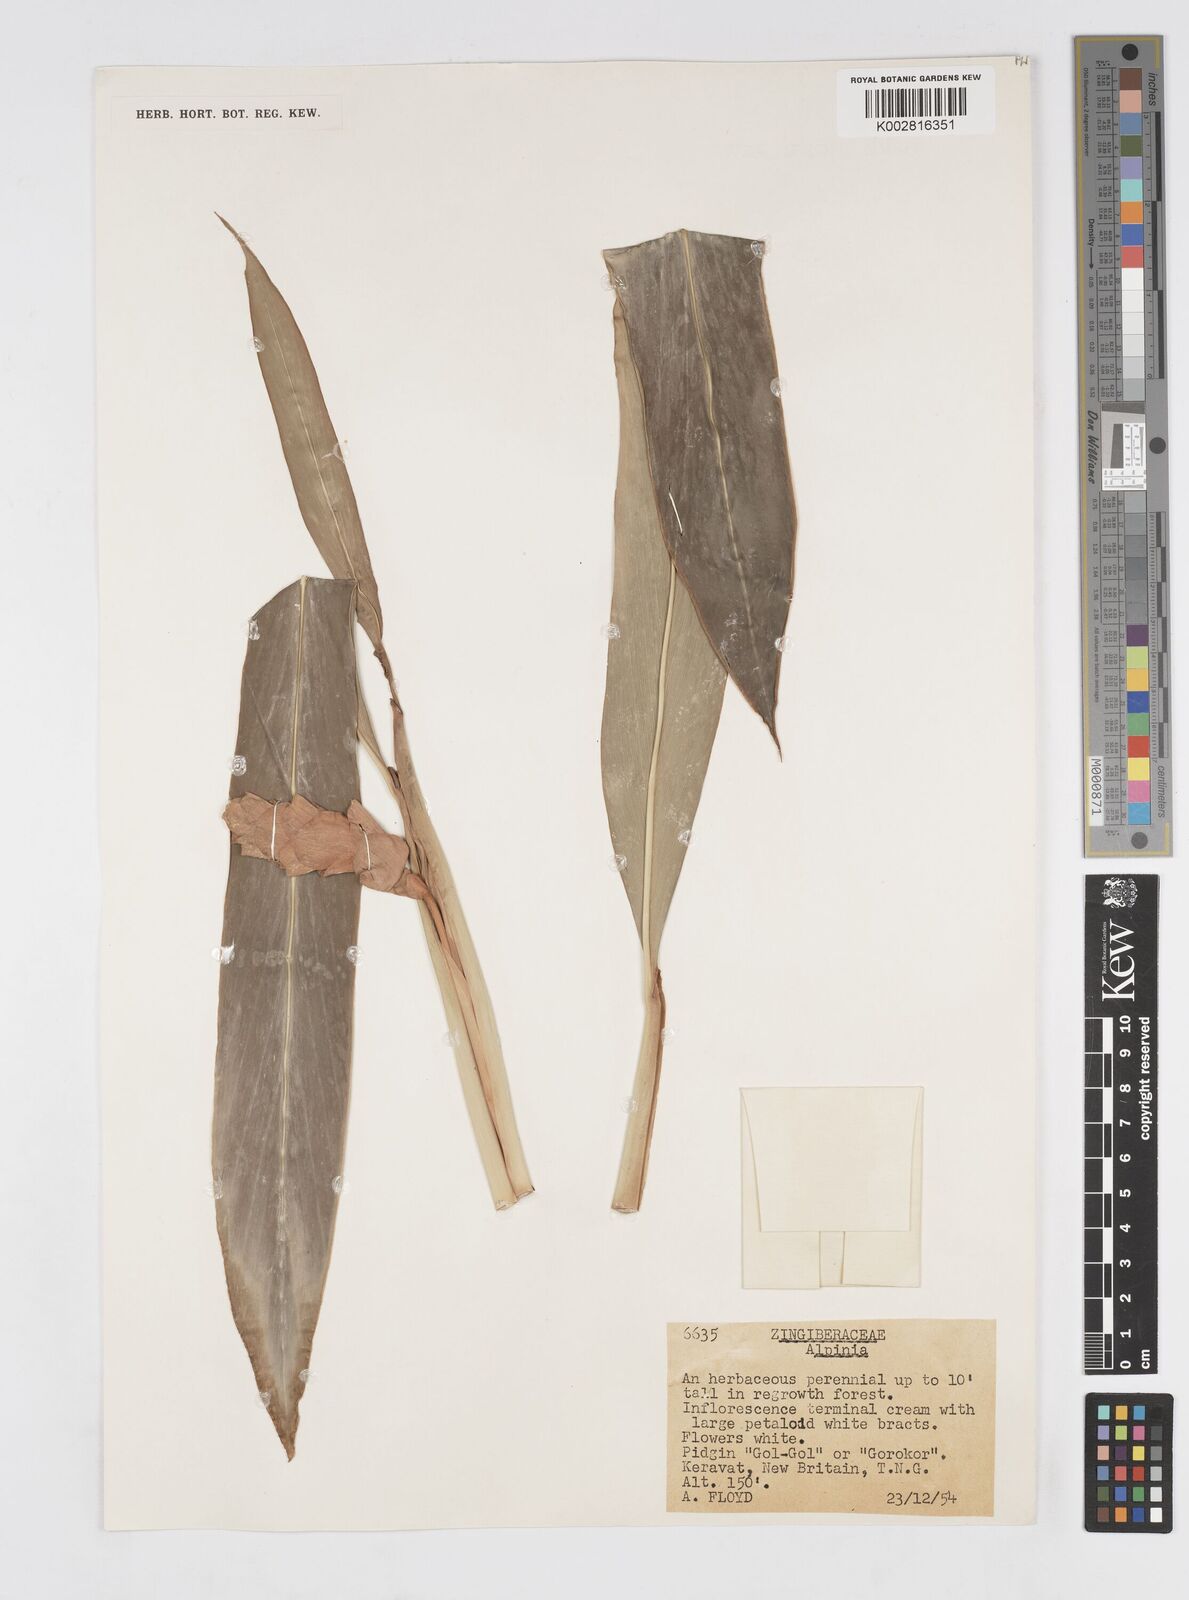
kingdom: Plantae
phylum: Tracheophyta
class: Liliopsida
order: Zingiberales
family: Zingiberaceae
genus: Alpinia
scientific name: Alpinia oceanica
